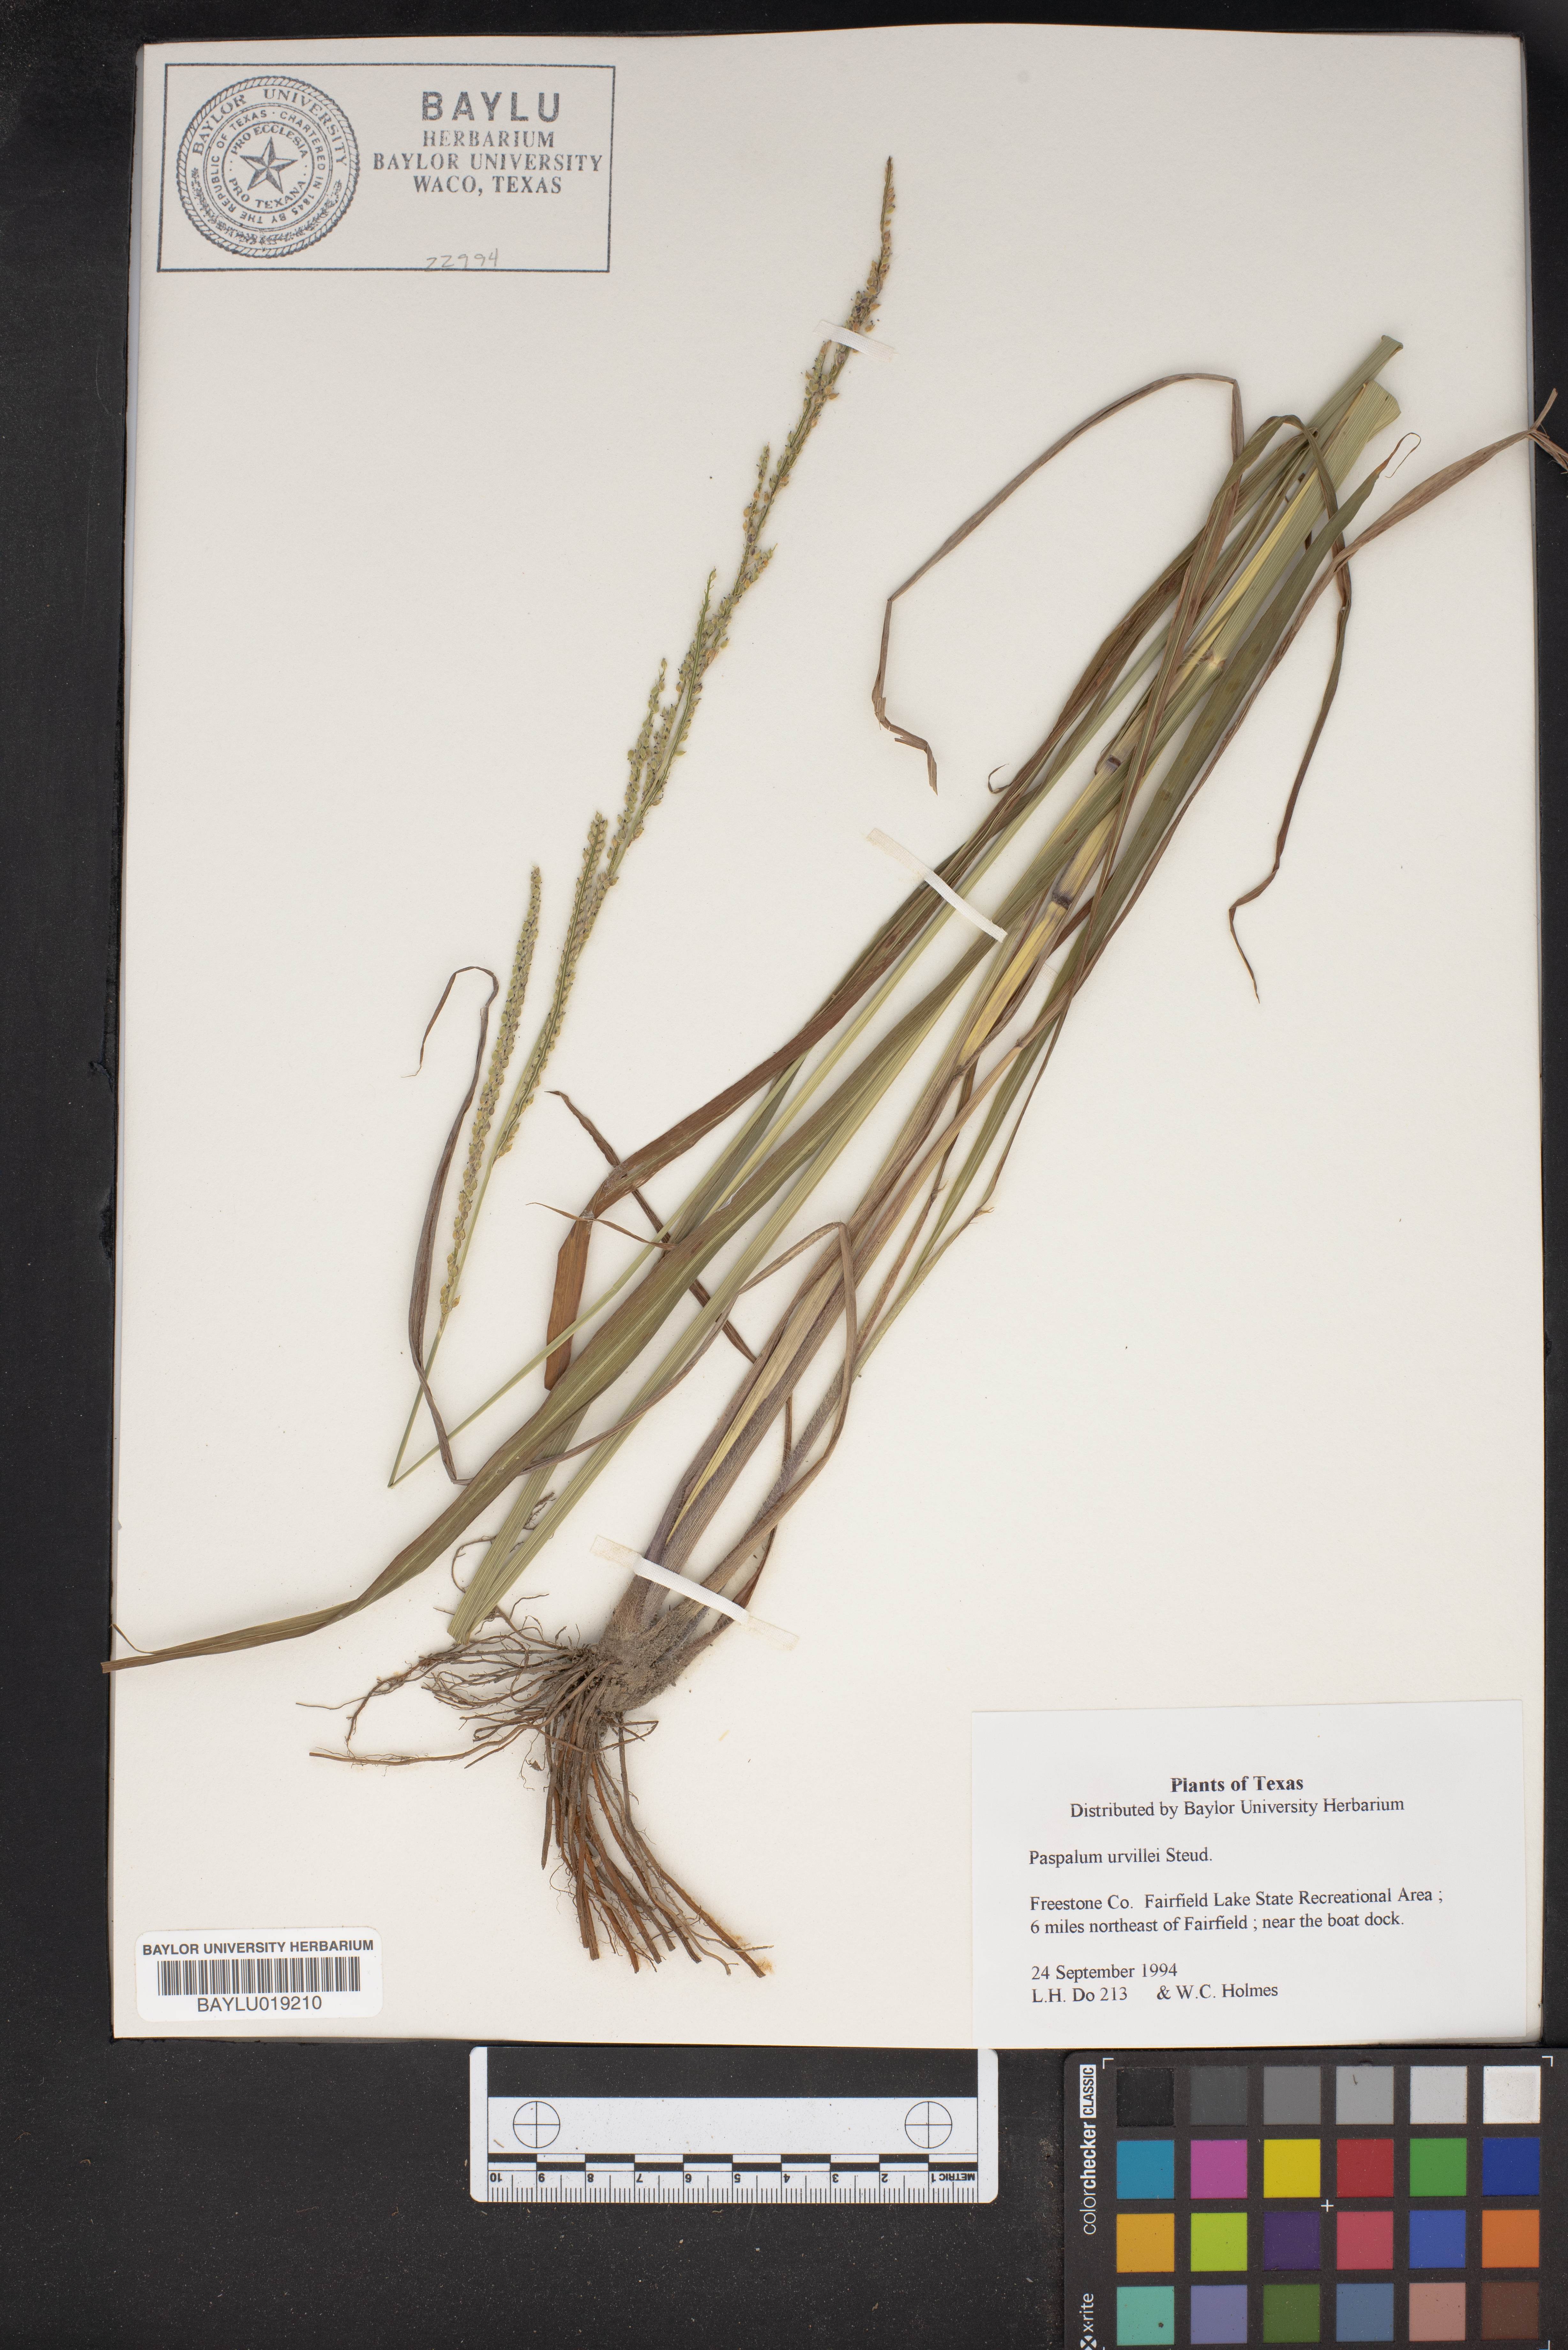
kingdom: Plantae
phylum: Tracheophyta
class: Liliopsida
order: Poales
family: Poaceae
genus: Paspalum
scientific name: Paspalum urvillei
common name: Vasey's grass
